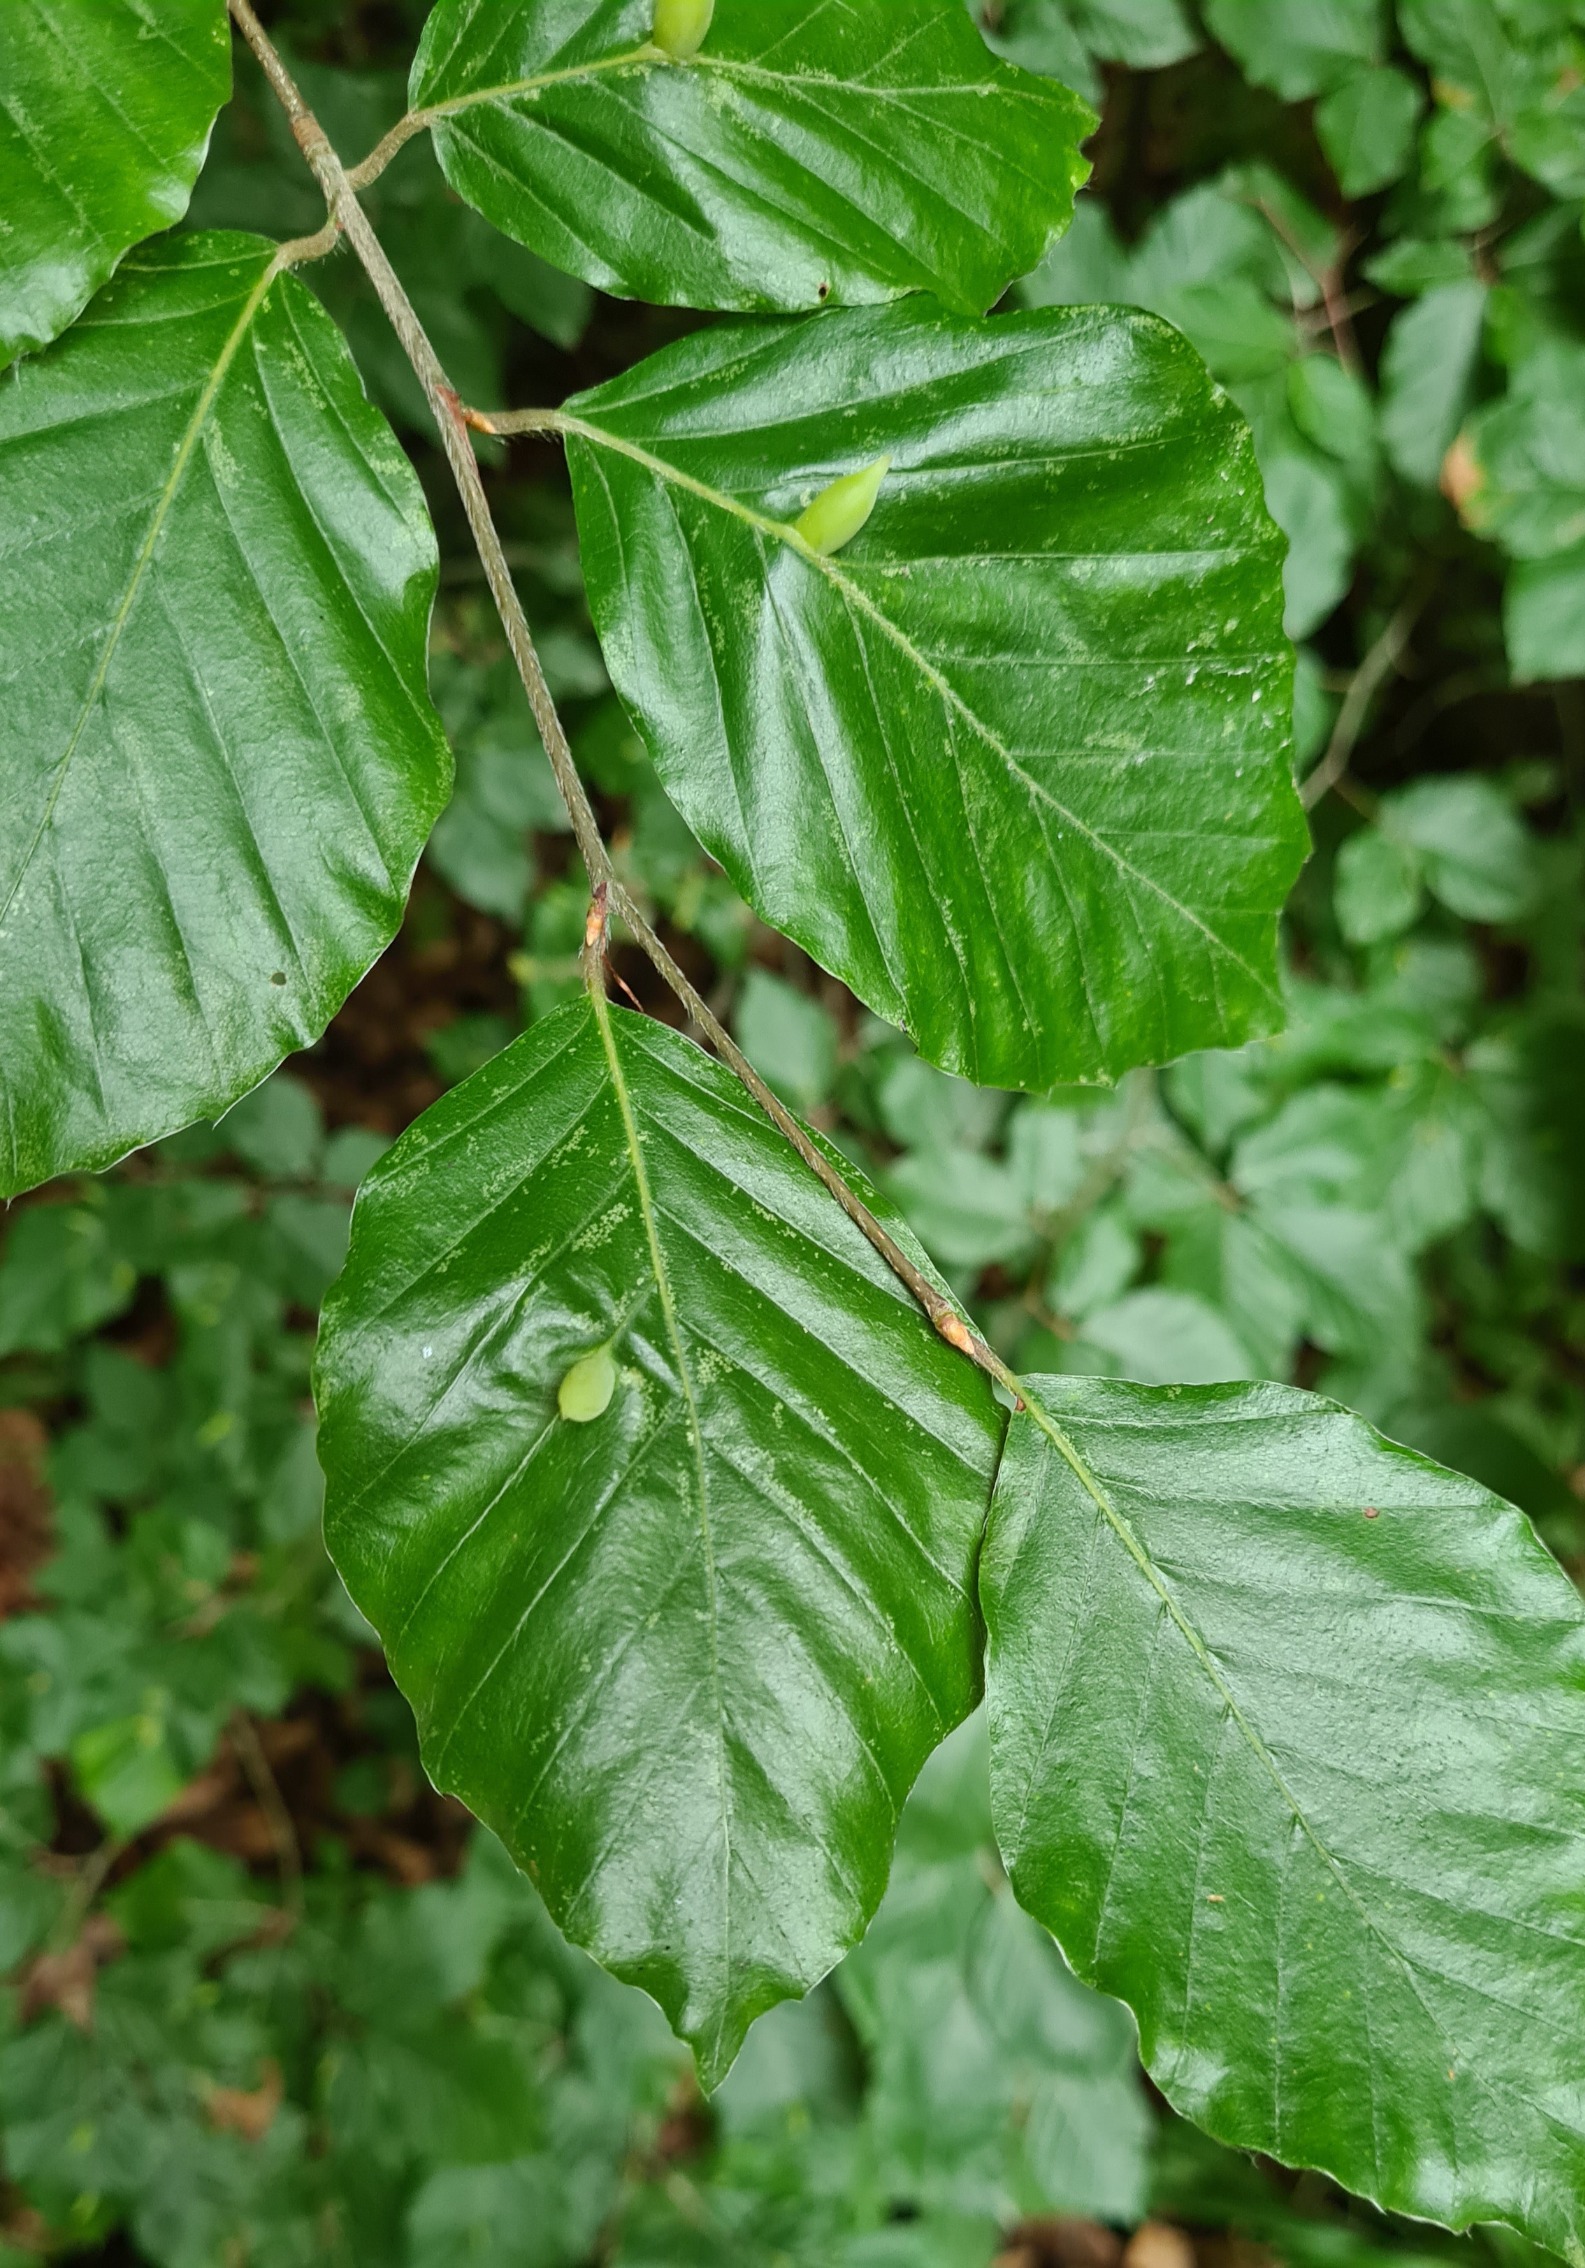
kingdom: Animalia
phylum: Arthropoda
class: Insecta
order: Diptera
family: Cecidomyiidae
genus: Mikiola
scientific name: Mikiola fagi
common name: Bøgegalmyg
